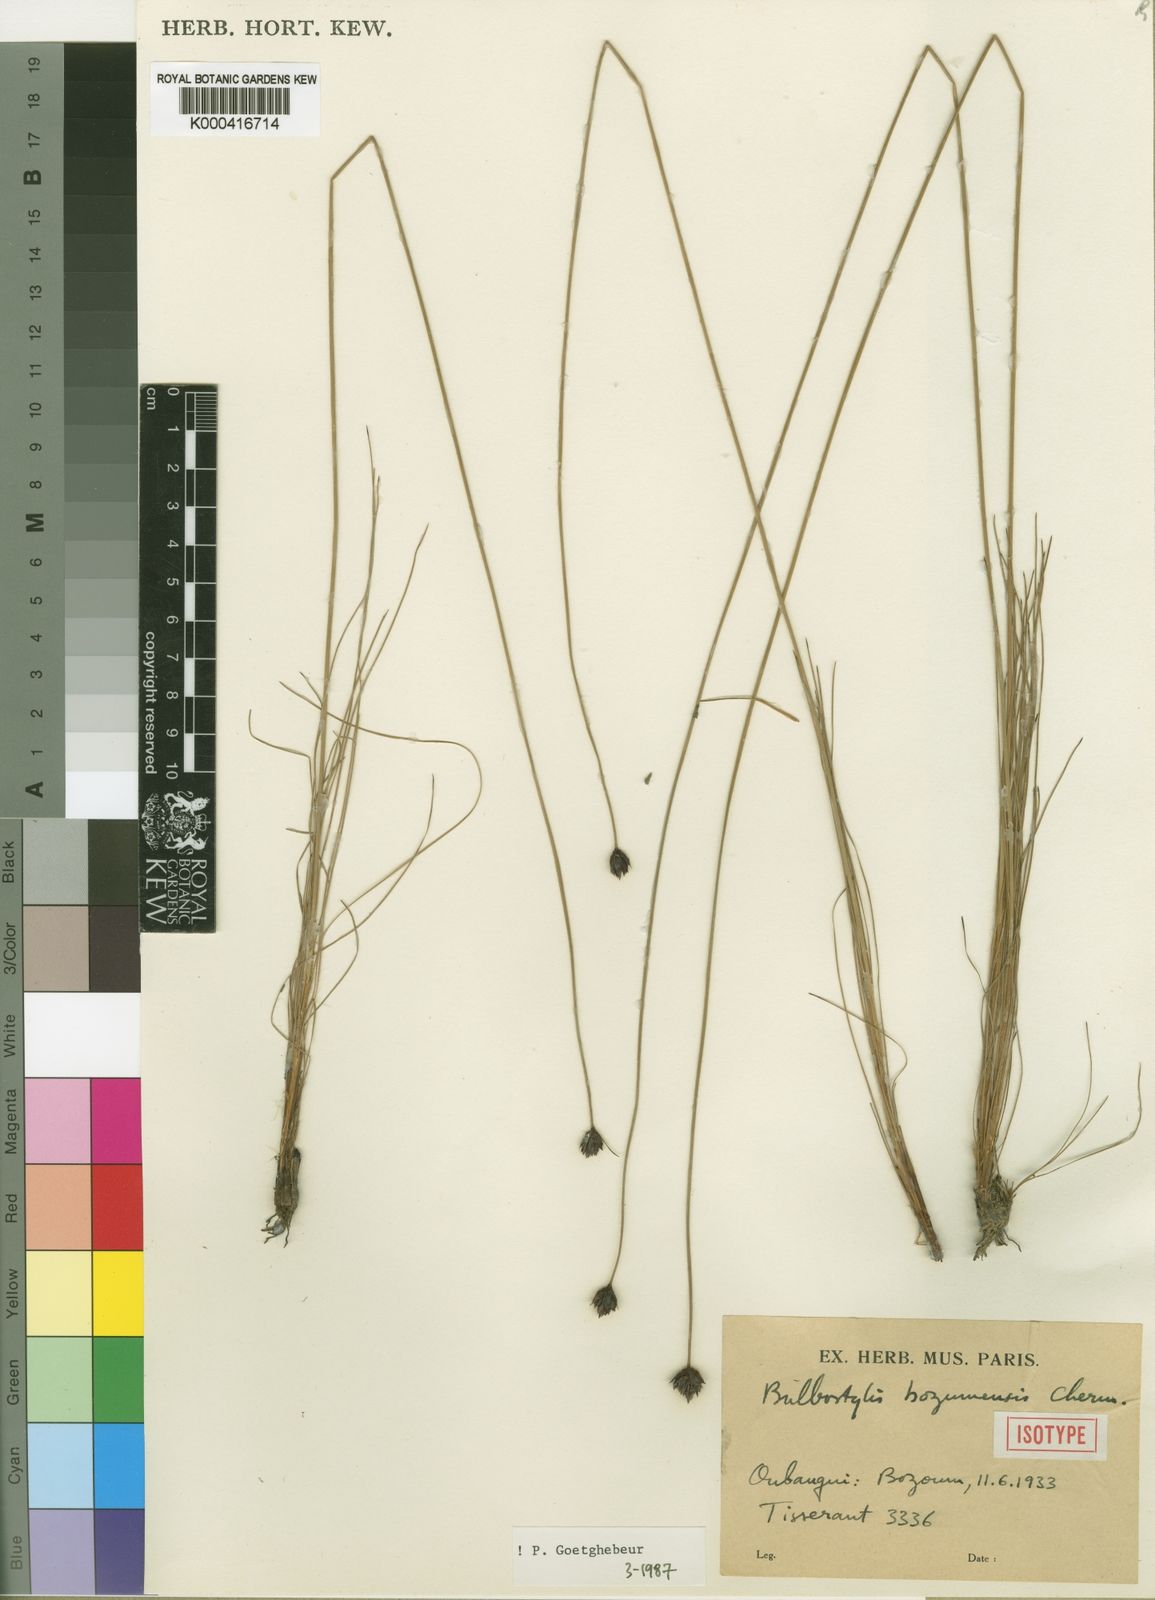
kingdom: Plantae
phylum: Tracheophyta
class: Liliopsida
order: Poales
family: Cyperaceae
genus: Bulbostylis
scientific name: Bulbostylis bozumensis
